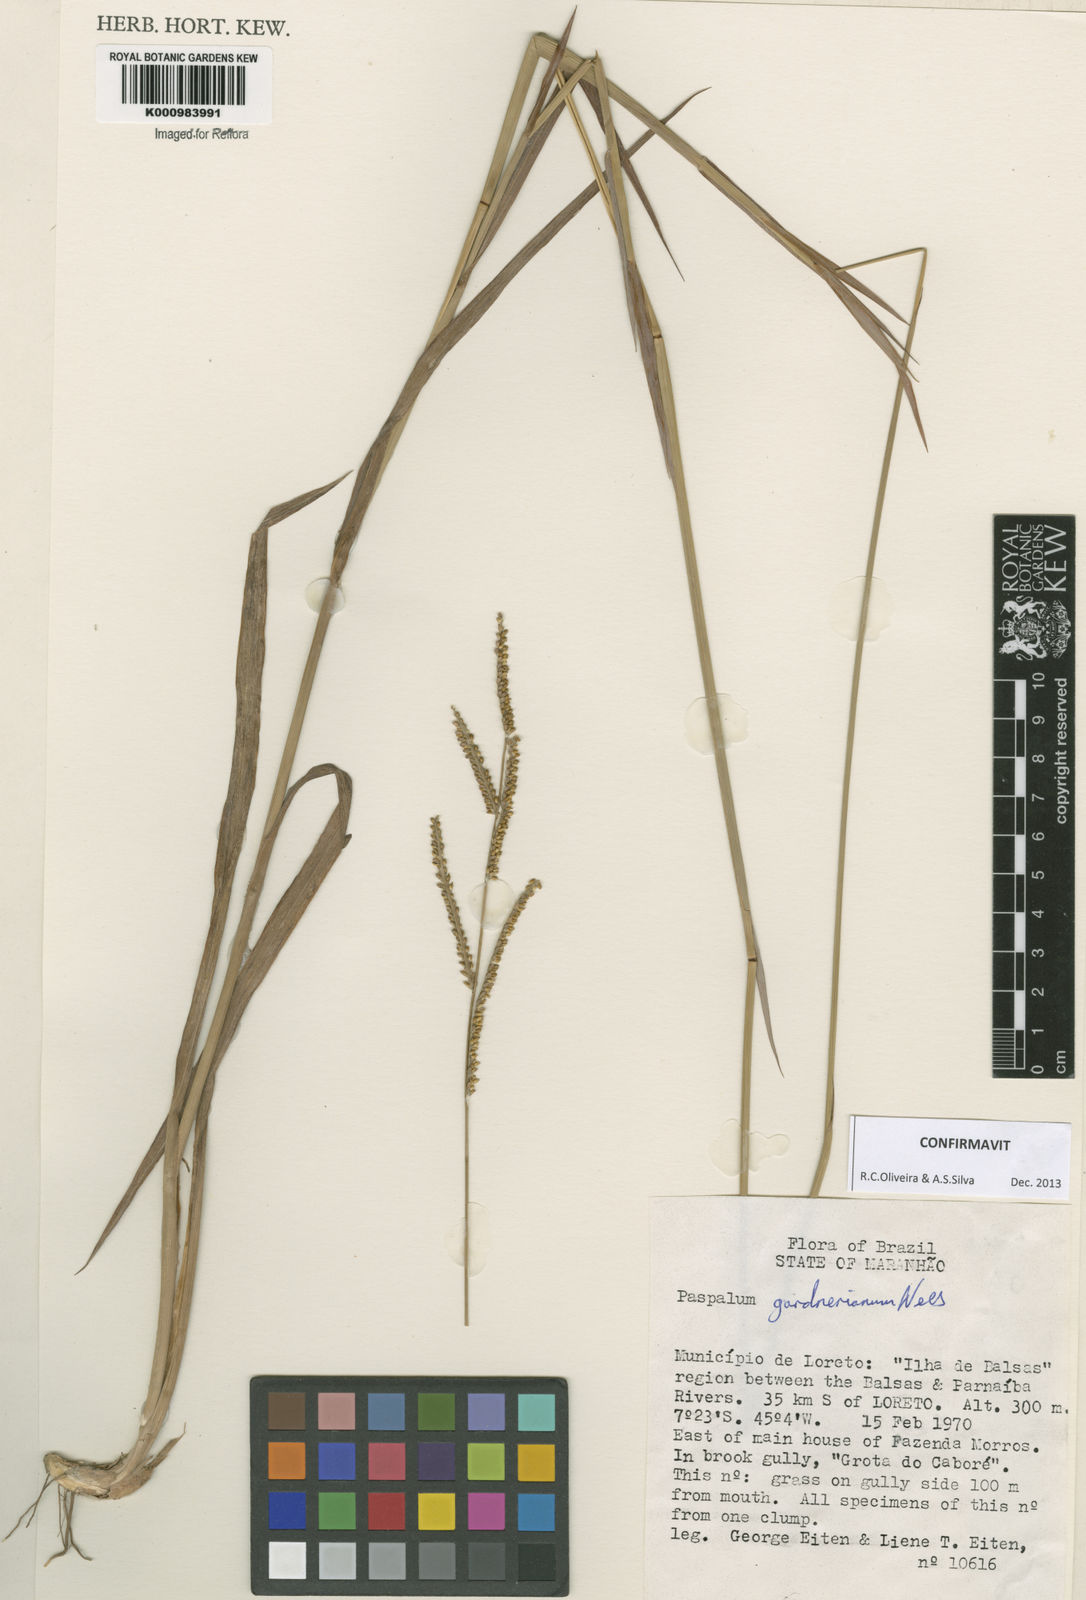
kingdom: Plantae
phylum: Tracheophyta
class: Liliopsida
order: Poales
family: Poaceae
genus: Paspalum
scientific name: Paspalum gardnerianum
